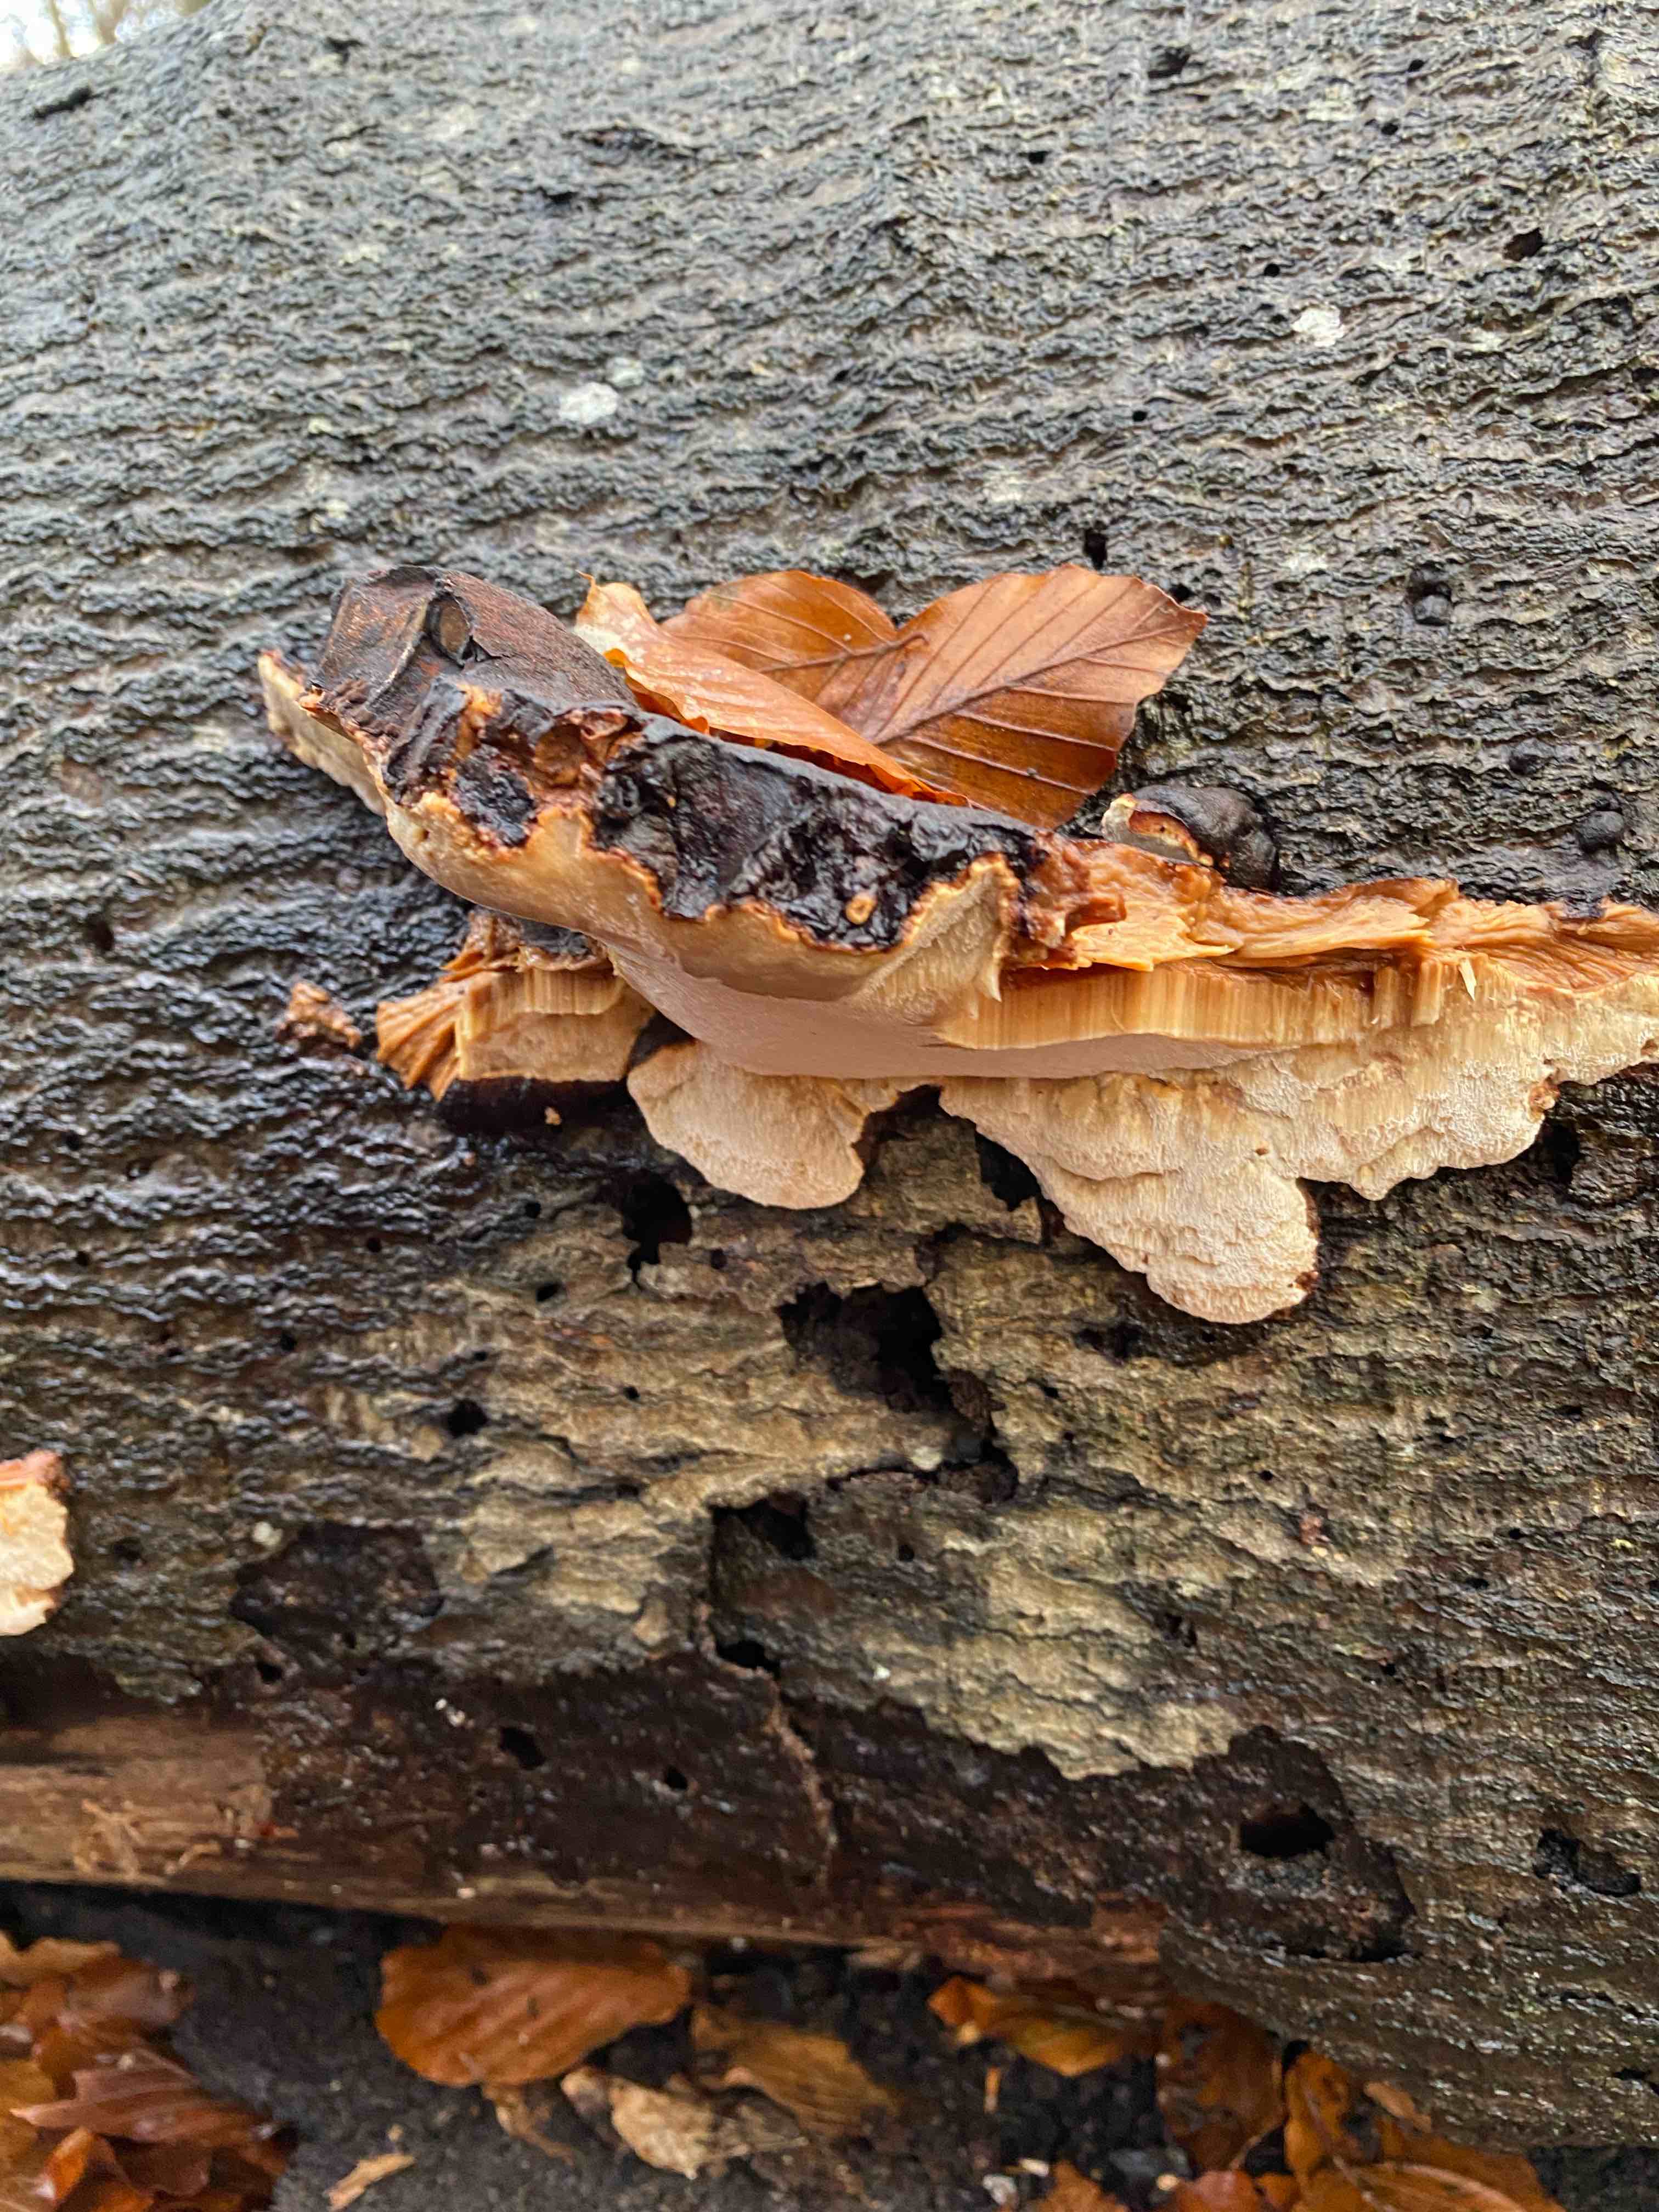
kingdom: Fungi
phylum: Basidiomycota
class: Agaricomycetes
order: Polyporales
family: Ischnodermataceae
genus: Ischnoderma
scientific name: Ischnoderma resinosum
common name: løv-tjæreporesvamp
